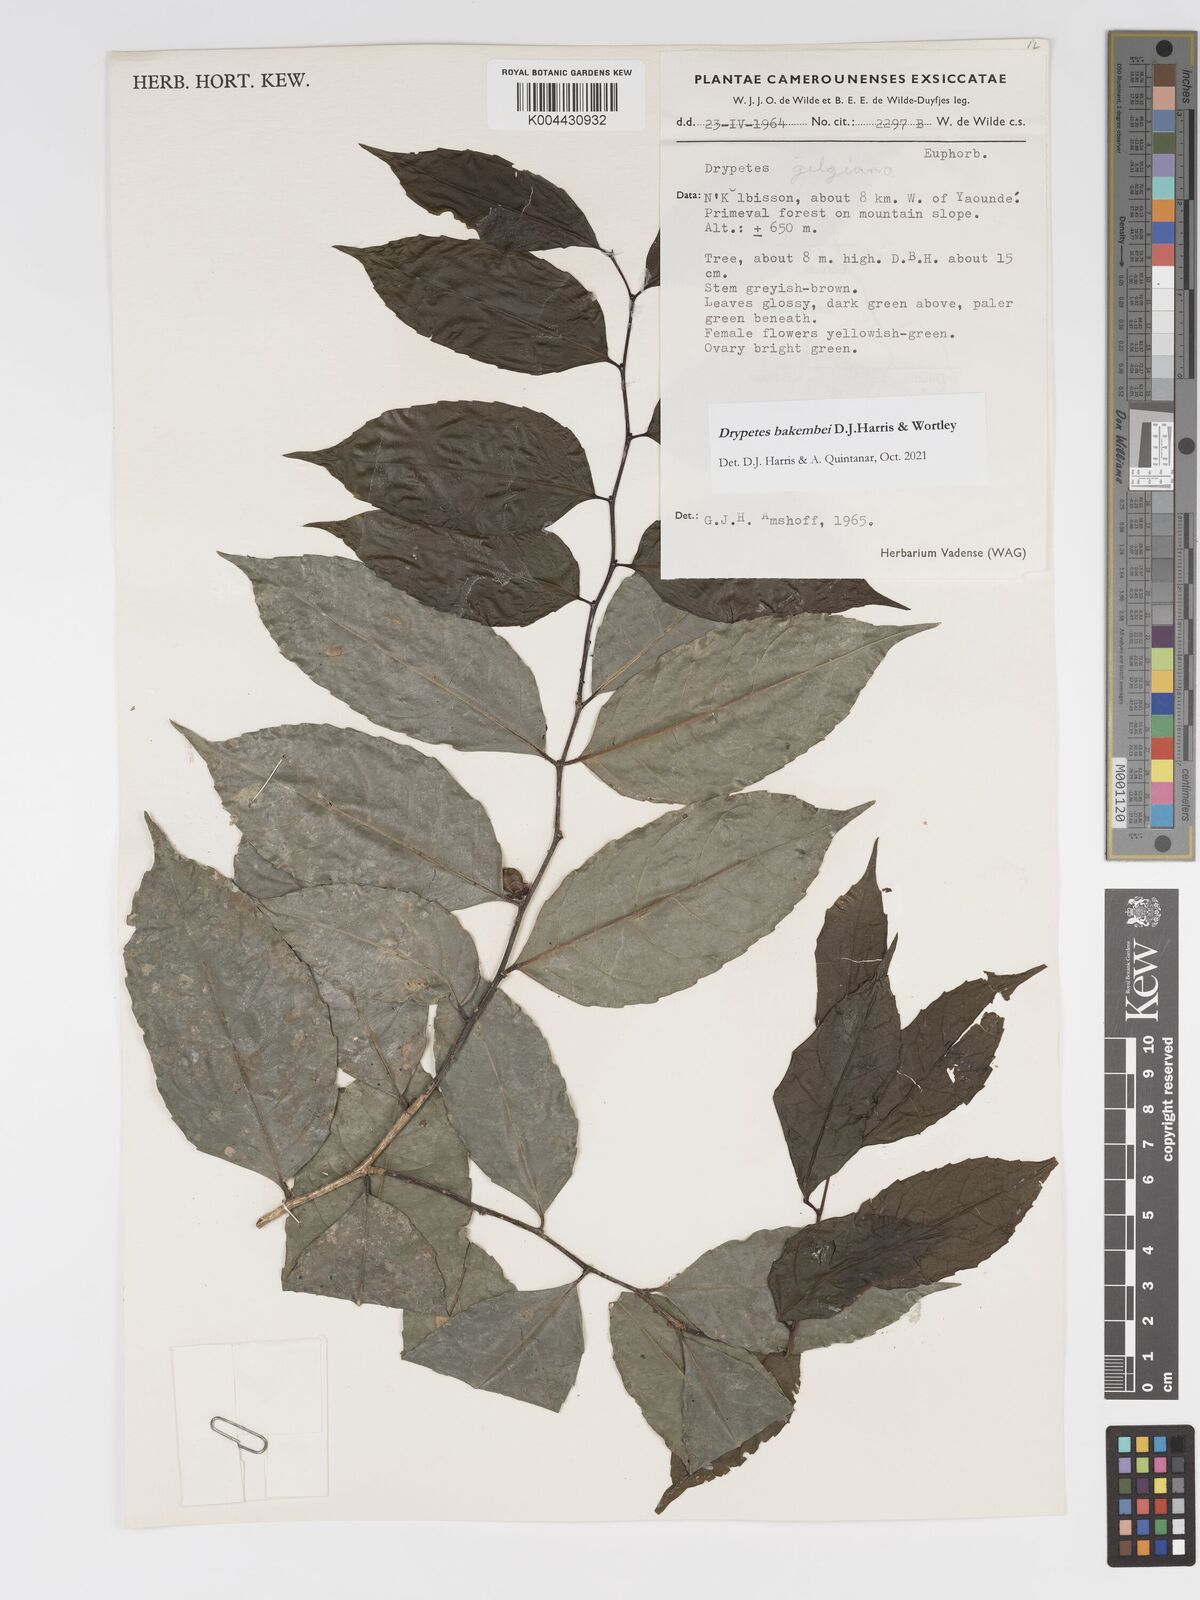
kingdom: Plantae
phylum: Tracheophyta
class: Magnoliopsida
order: Malpighiales
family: Putranjivaceae
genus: Drypetes
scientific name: Drypetes bakembei
